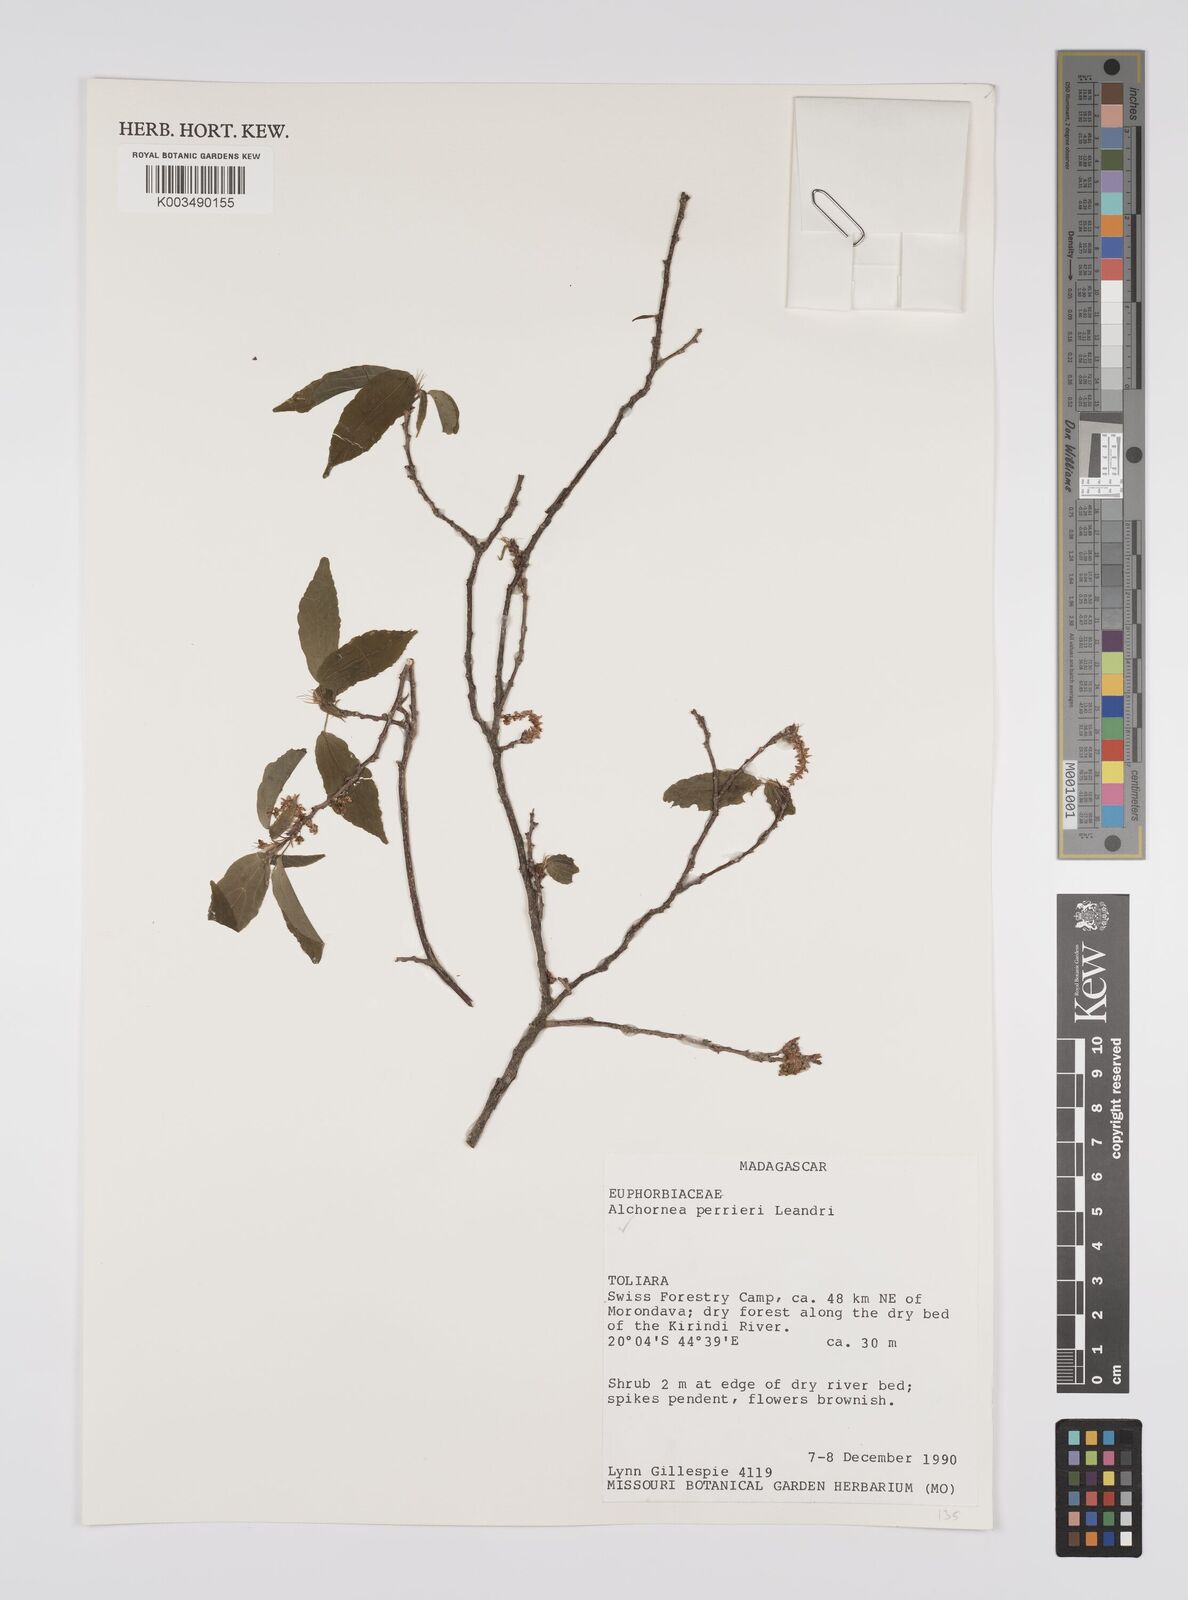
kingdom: Plantae
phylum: Tracheophyta
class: Magnoliopsida
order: Malpighiales
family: Euphorbiaceae
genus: Alchornea
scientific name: Alchornea perrieri
